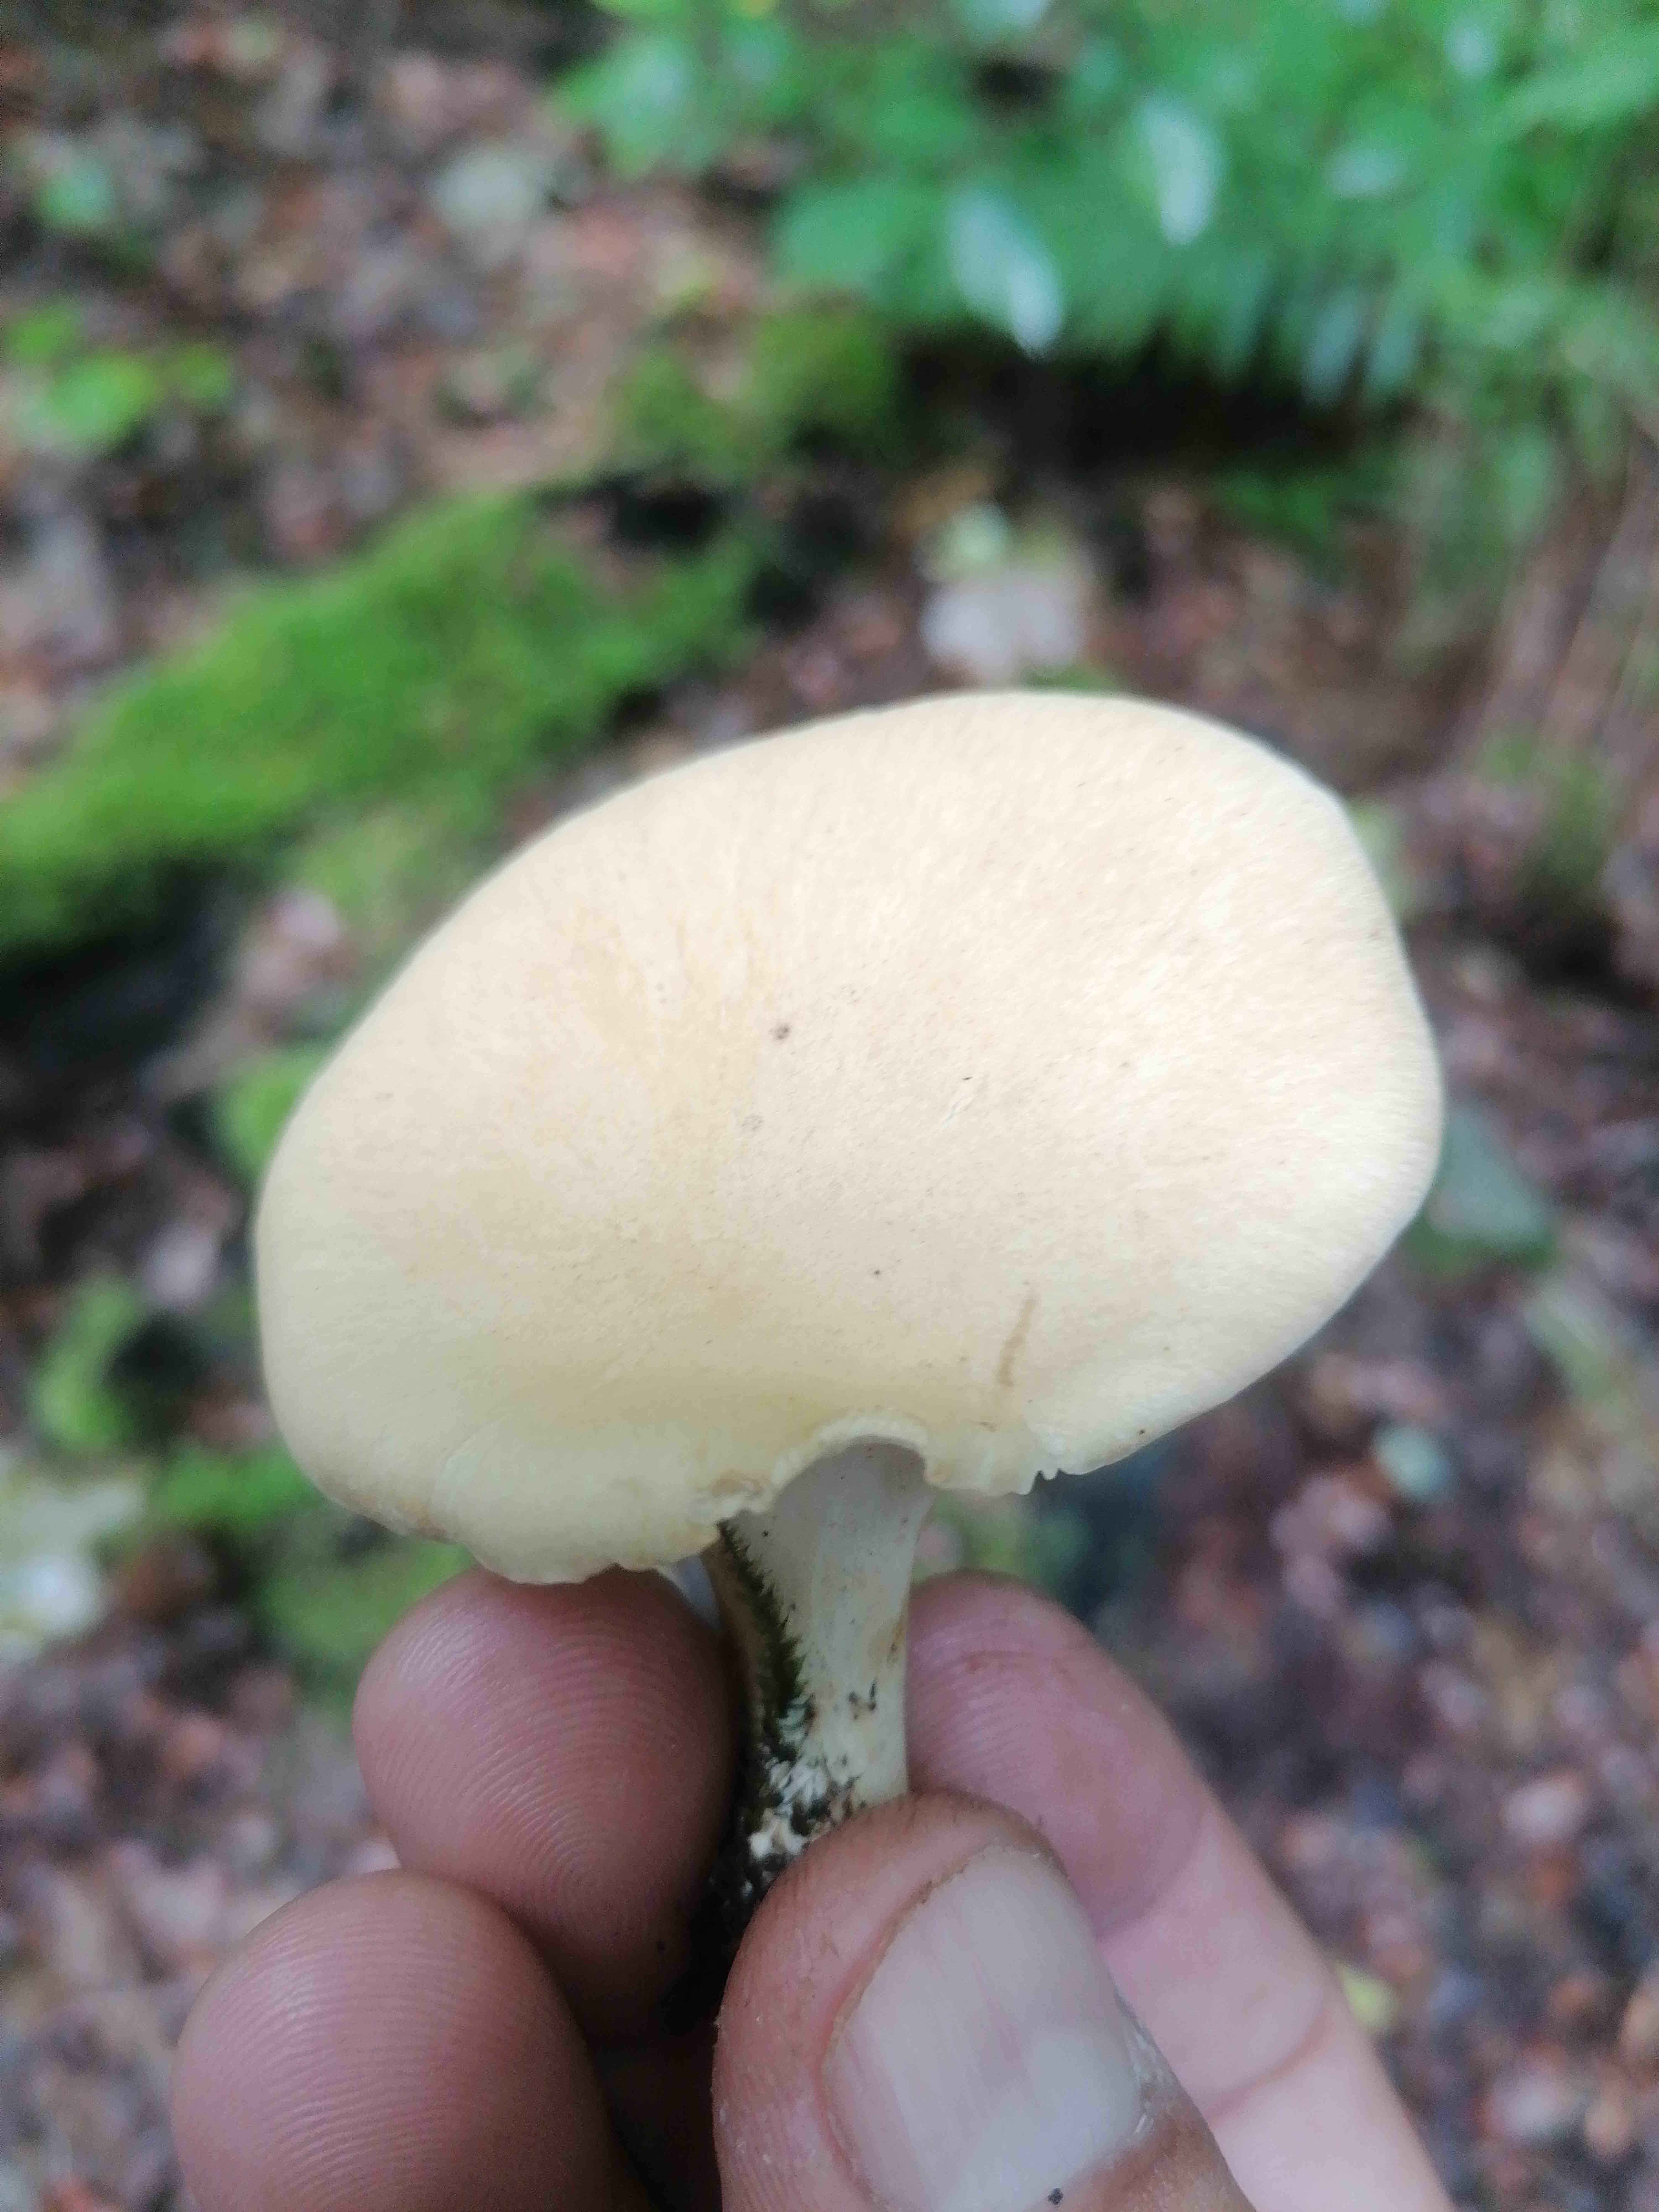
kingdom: Fungi
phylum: Basidiomycota
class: Agaricomycetes
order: Polyporales
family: Polyporaceae
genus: Cerioporus
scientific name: Cerioporus varius
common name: foranderlig stilkporesvamp
